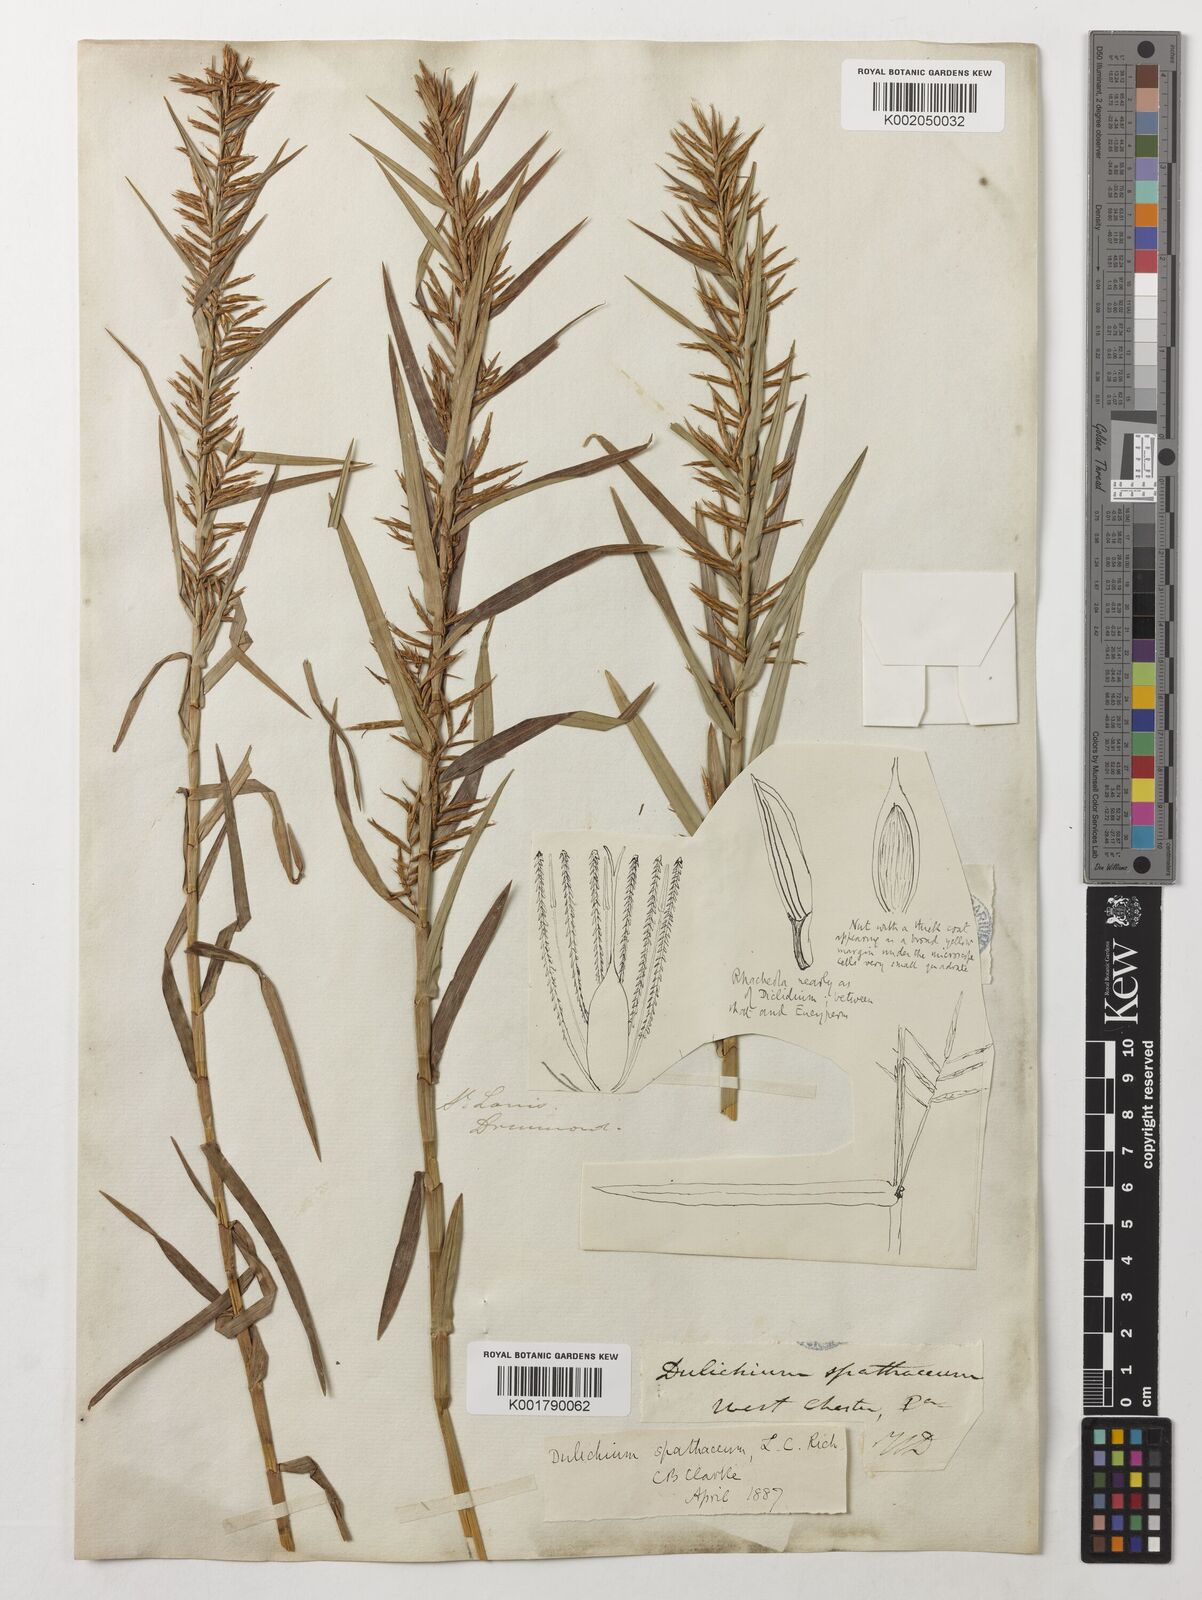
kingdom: Plantae
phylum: Tracheophyta
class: Liliopsida
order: Poales
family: Cyperaceae
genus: Dulichium
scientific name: Dulichium arundinaceum
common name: Three-way sedge
